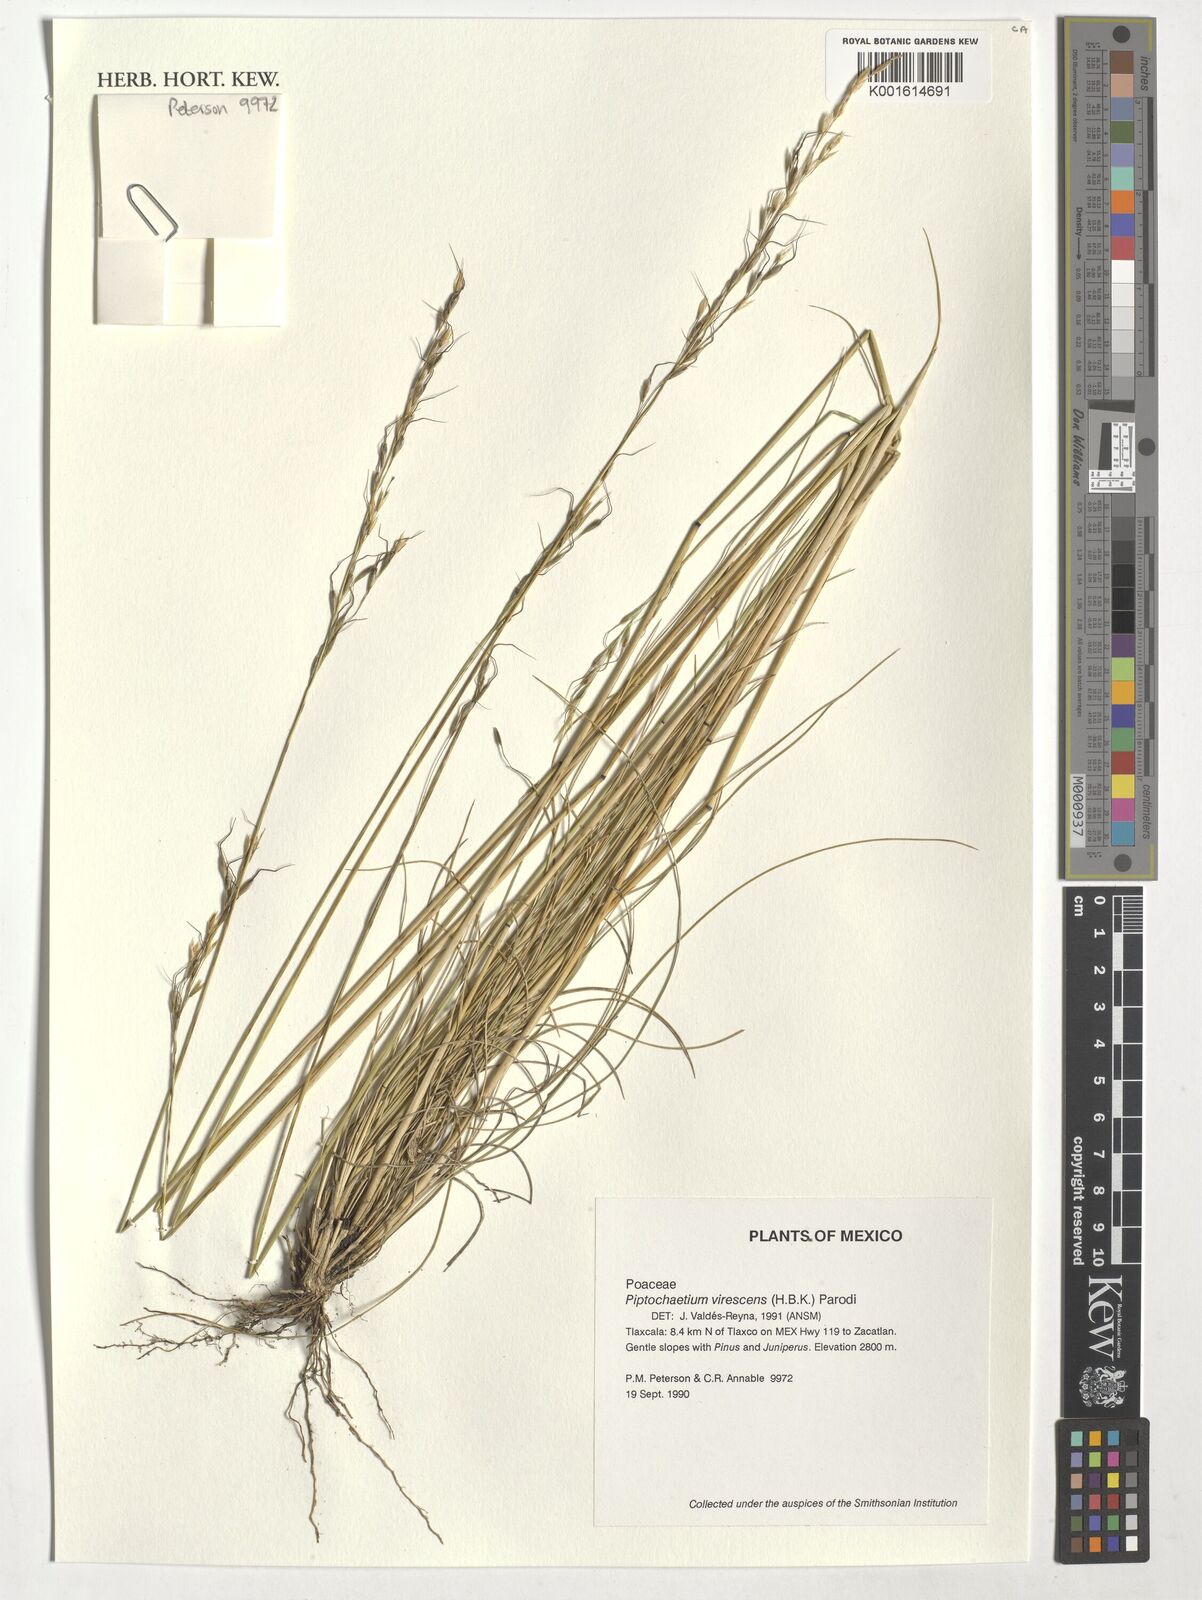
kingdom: Plantae
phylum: Tracheophyta
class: Liliopsida
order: Poales
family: Poaceae
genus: Piptochaetium
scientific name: Piptochaetium virescens
